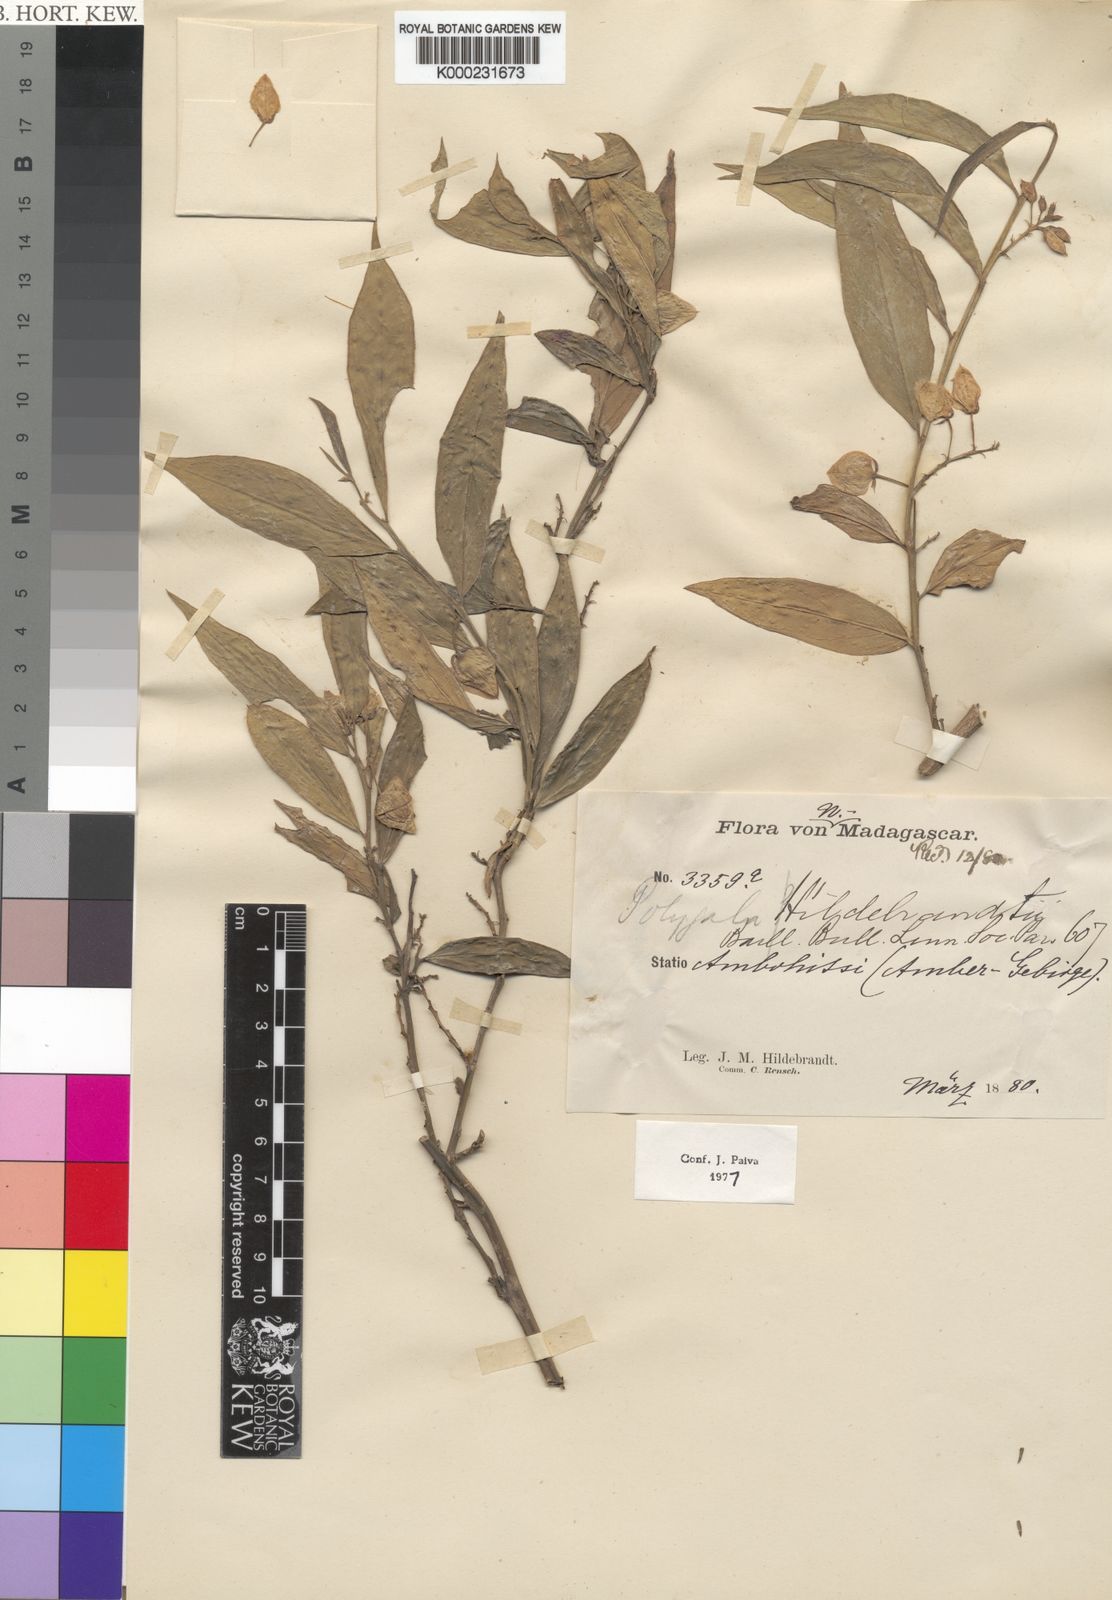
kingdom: Plantae
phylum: Tracheophyta
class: Magnoliopsida
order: Fabales
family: Polygalaceae
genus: Polygala
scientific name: Polygala hildebrandtii
